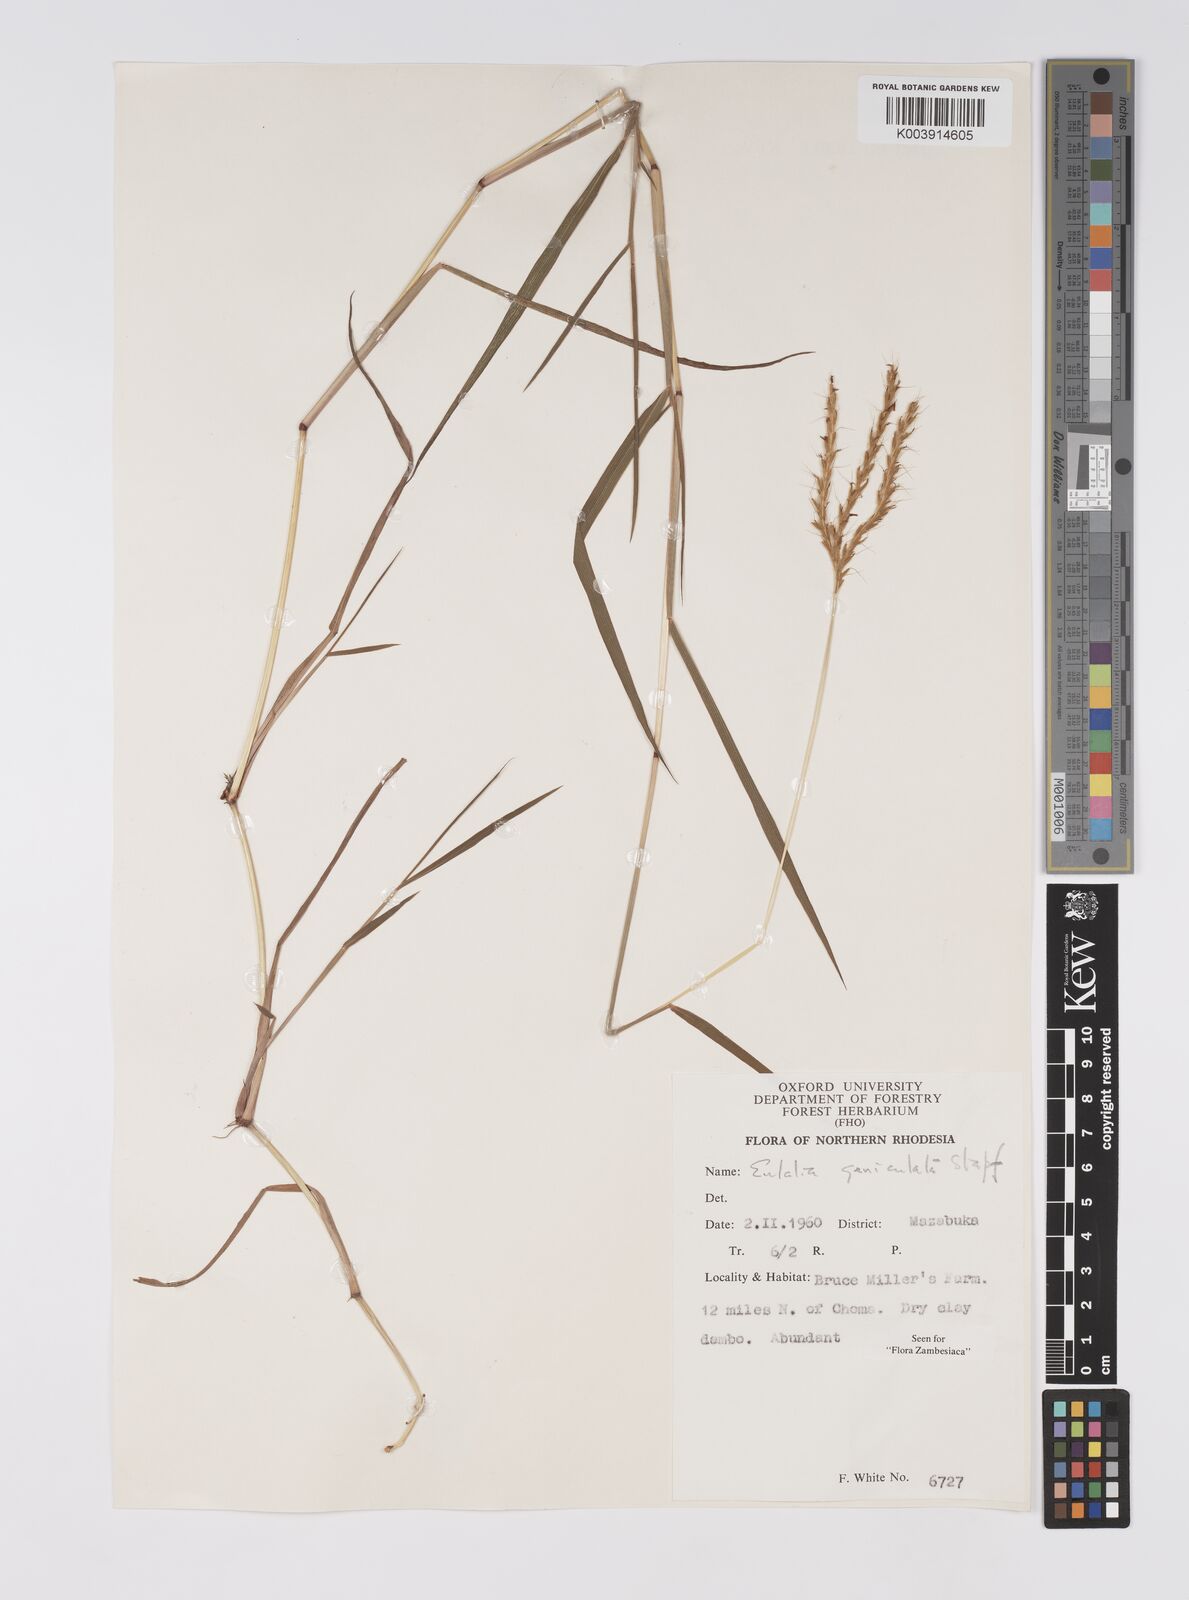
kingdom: Plantae
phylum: Tracheophyta
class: Liliopsida
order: Poales
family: Poaceae
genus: Eulalia
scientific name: Eulalia aurea
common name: Silky browntop
